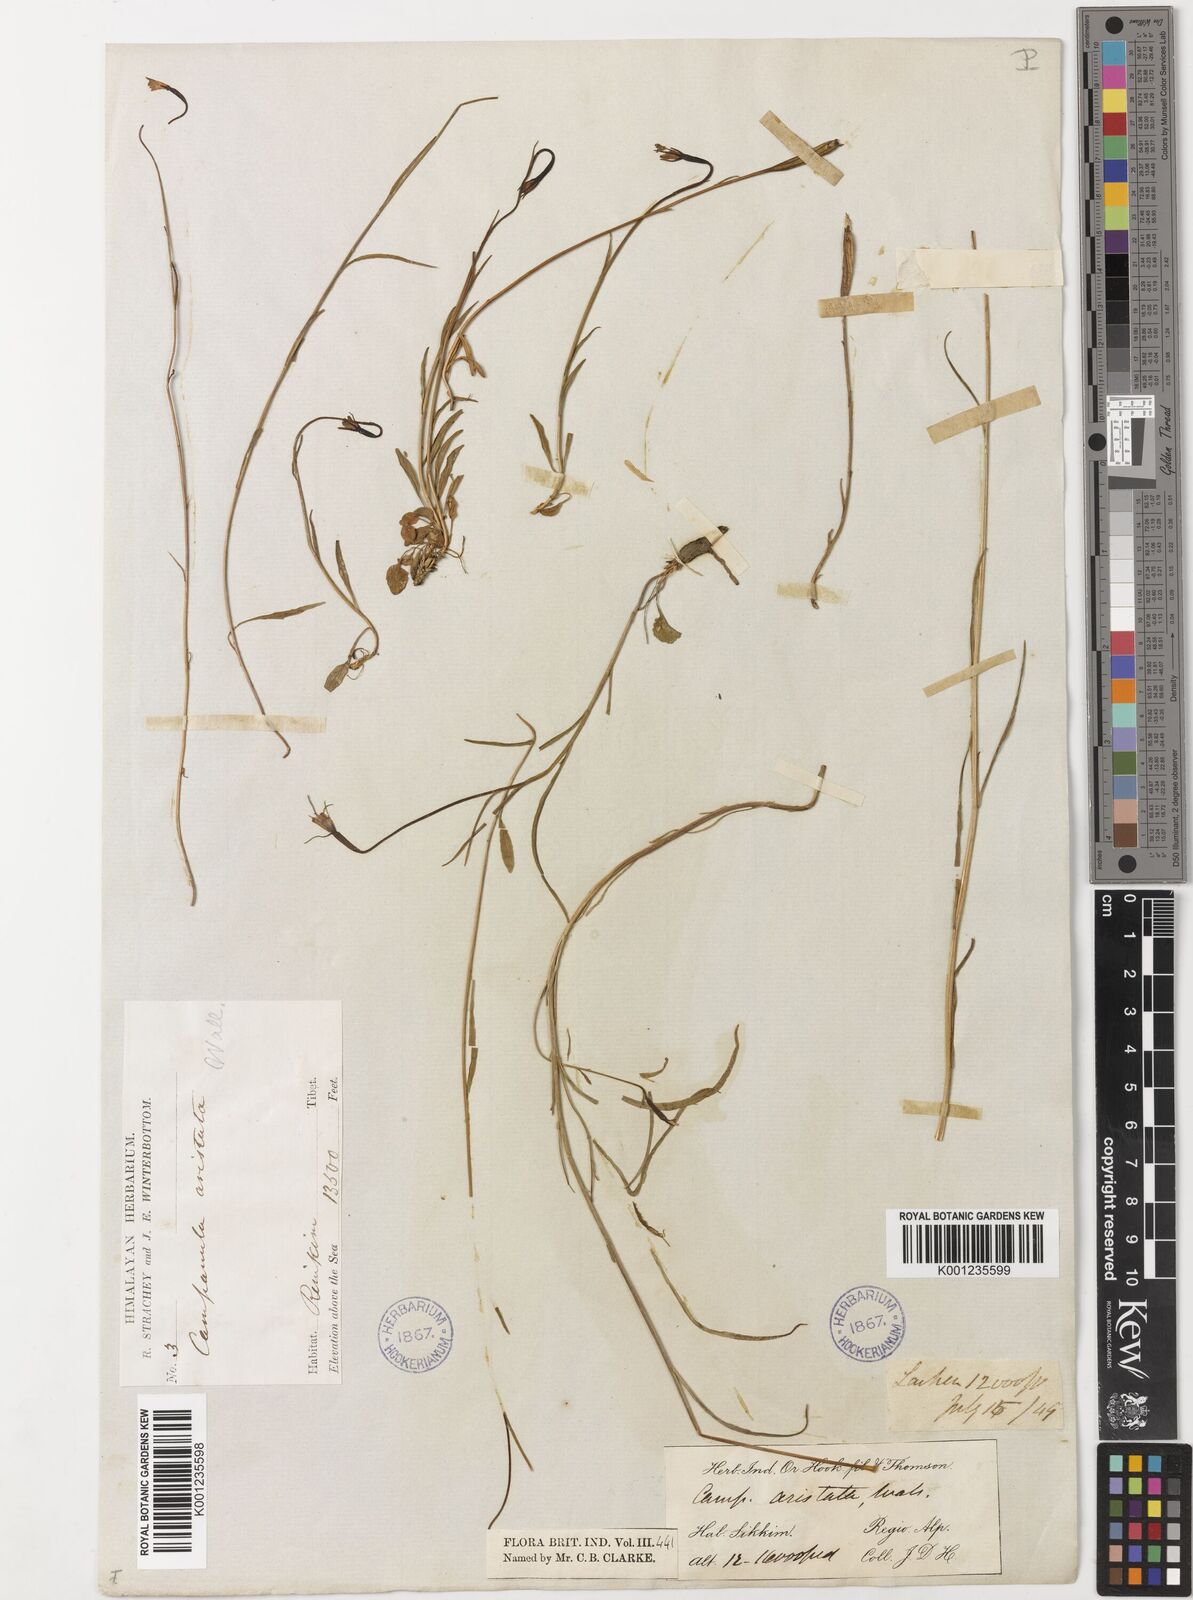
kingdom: Plantae
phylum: Tracheophyta
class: Magnoliopsida
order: Asterales
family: Campanulaceae
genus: Campanula
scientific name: Campanula aristata
